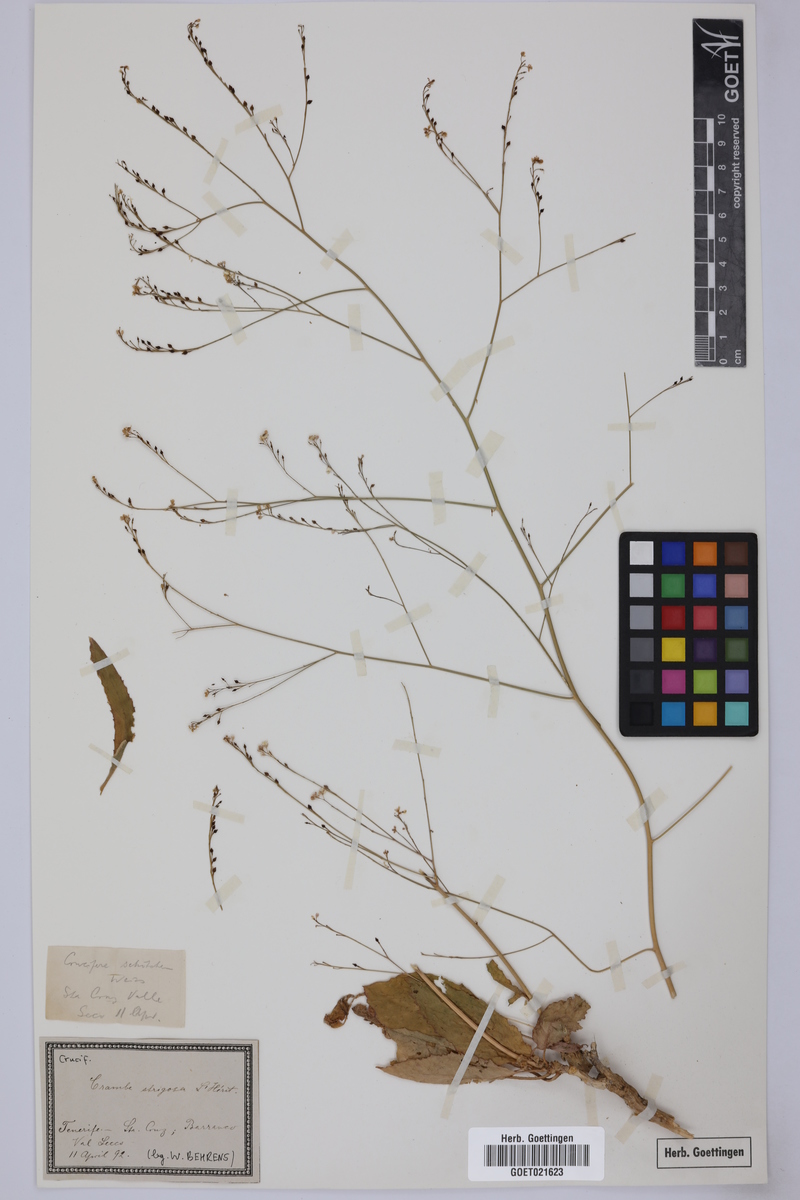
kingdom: Plantae
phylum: Tracheophyta
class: Magnoliopsida
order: Brassicales
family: Brassicaceae
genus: Crambe
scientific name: Crambe strigosa
